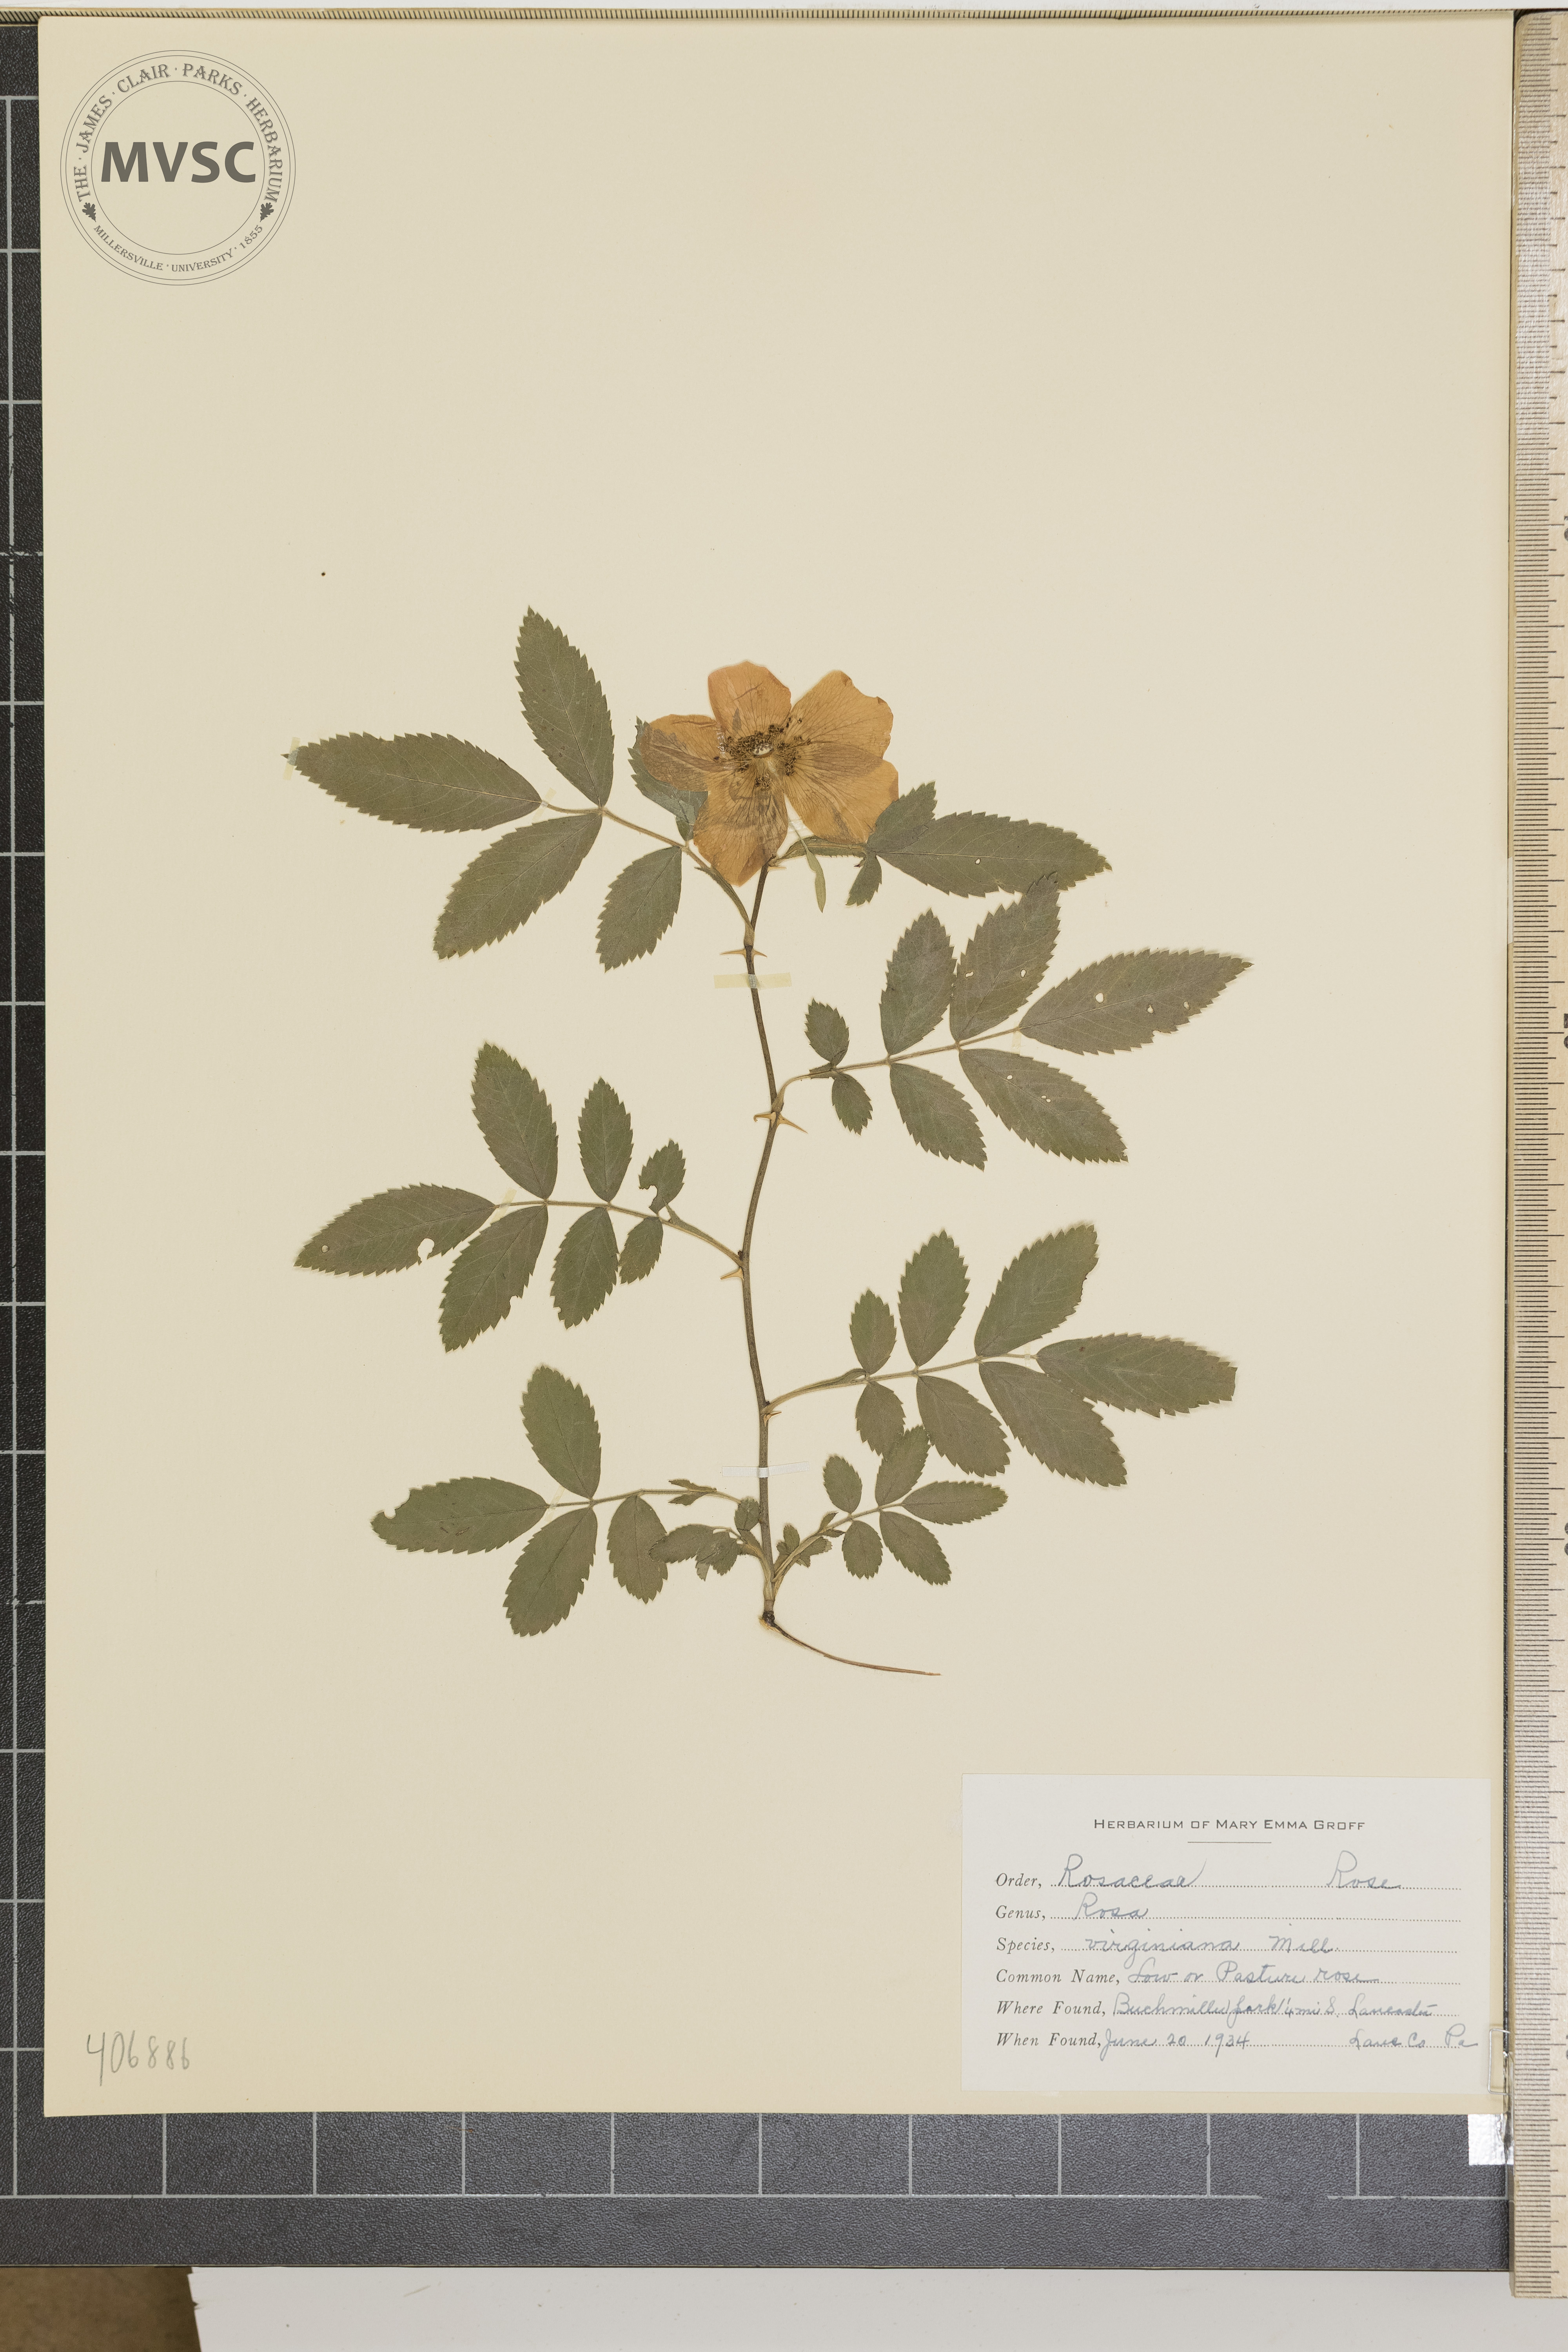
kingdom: Plantae
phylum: Tracheophyta
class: Magnoliopsida
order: Rosales
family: Rosaceae
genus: Rosa
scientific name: Rosa virginiana
